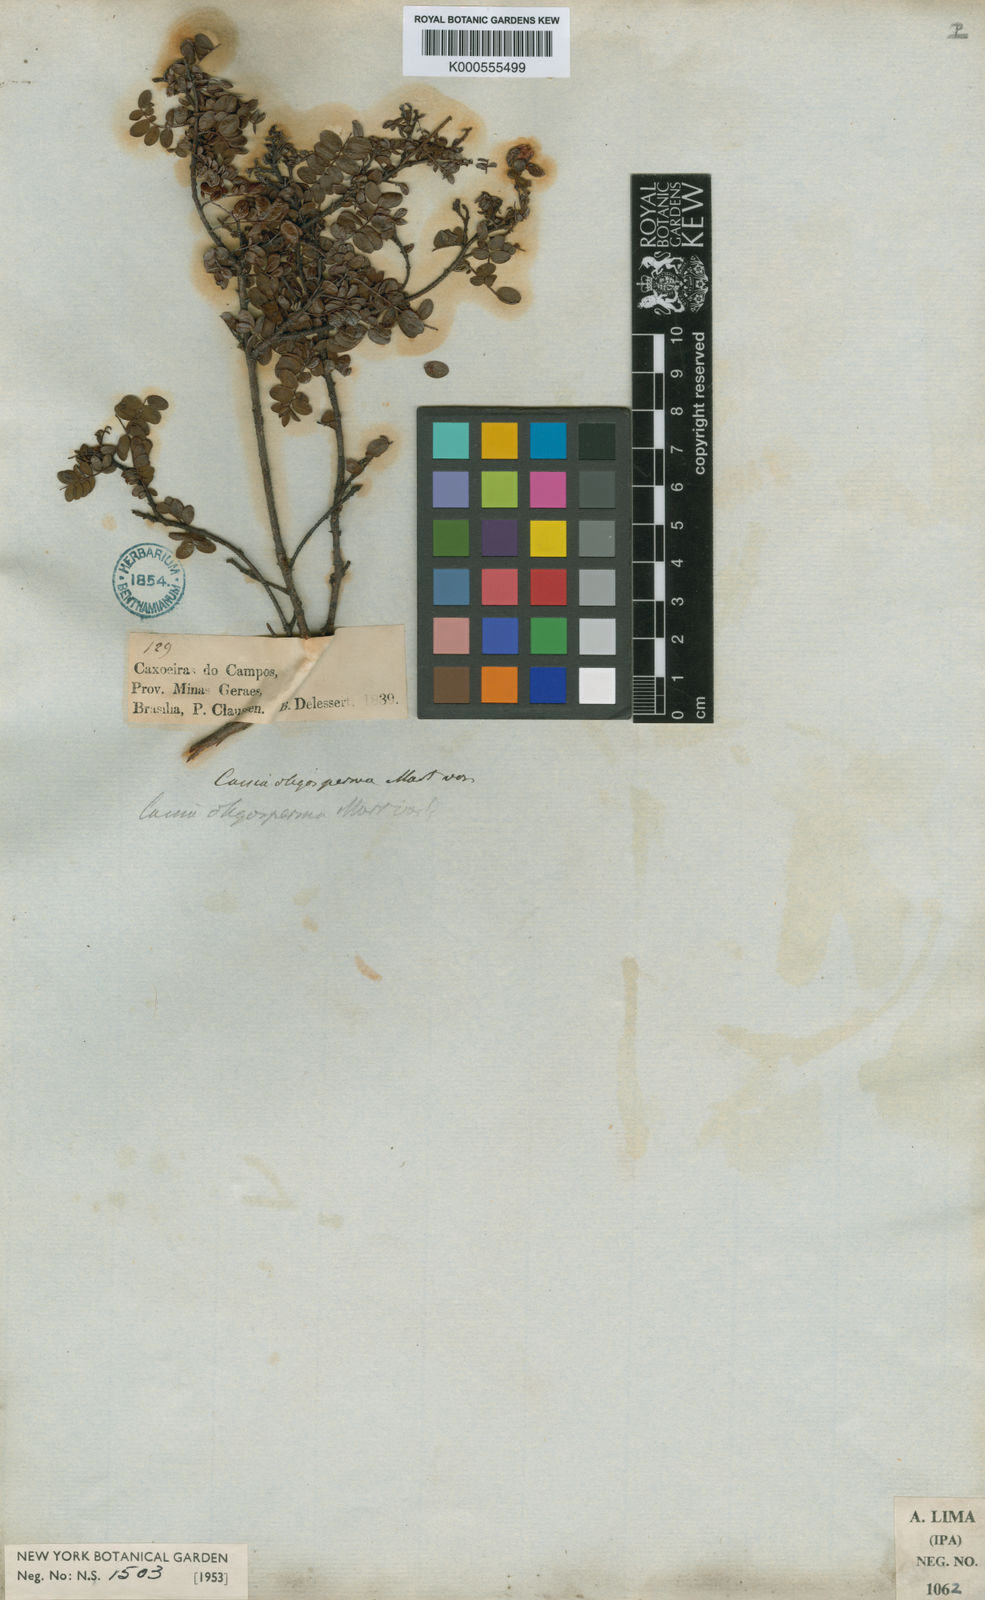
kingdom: Plantae
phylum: Tracheophyta
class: Magnoliopsida
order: Fabales
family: Fabaceae
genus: Chamaecrista
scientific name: Chamaecrista oligosperma
